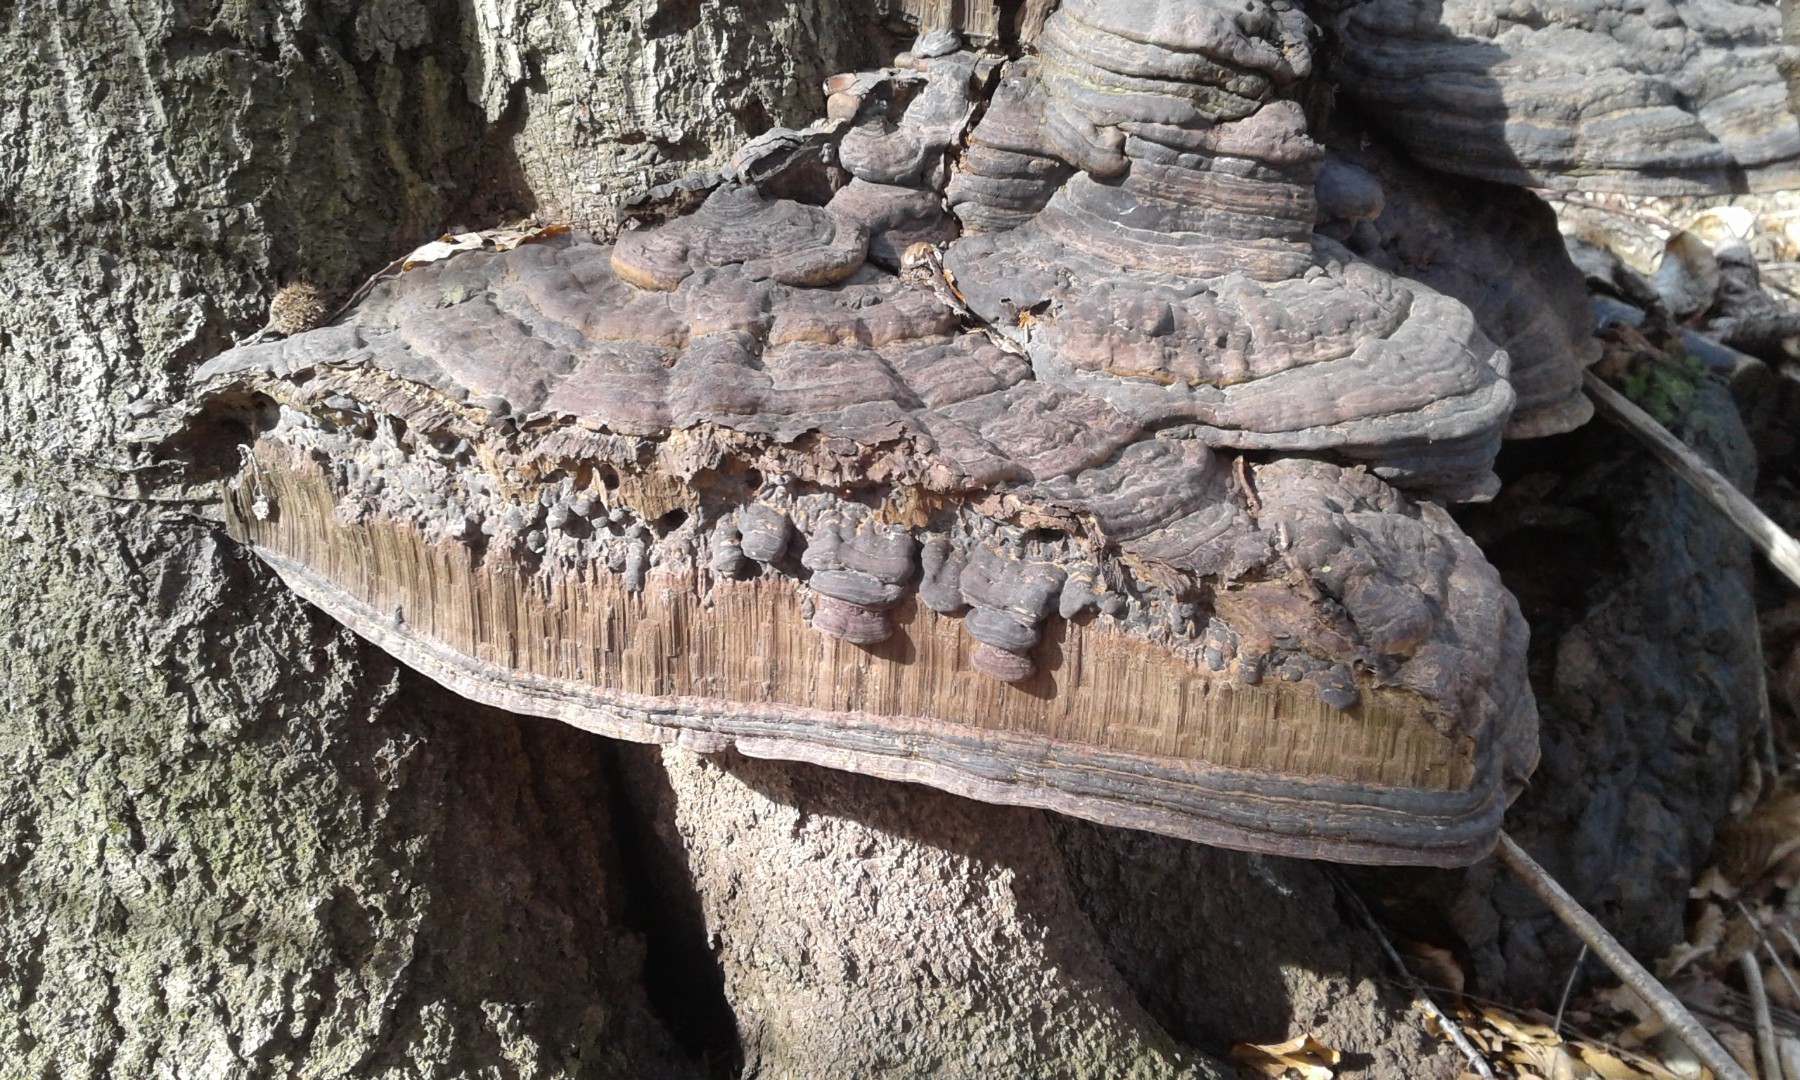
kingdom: Fungi
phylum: Basidiomycota
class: Agaricomycetes
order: Polyporales
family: Polyporaceae
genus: Ganoderma
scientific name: Ganoderma pfeifferi
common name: kobberrød lakporesvamp
